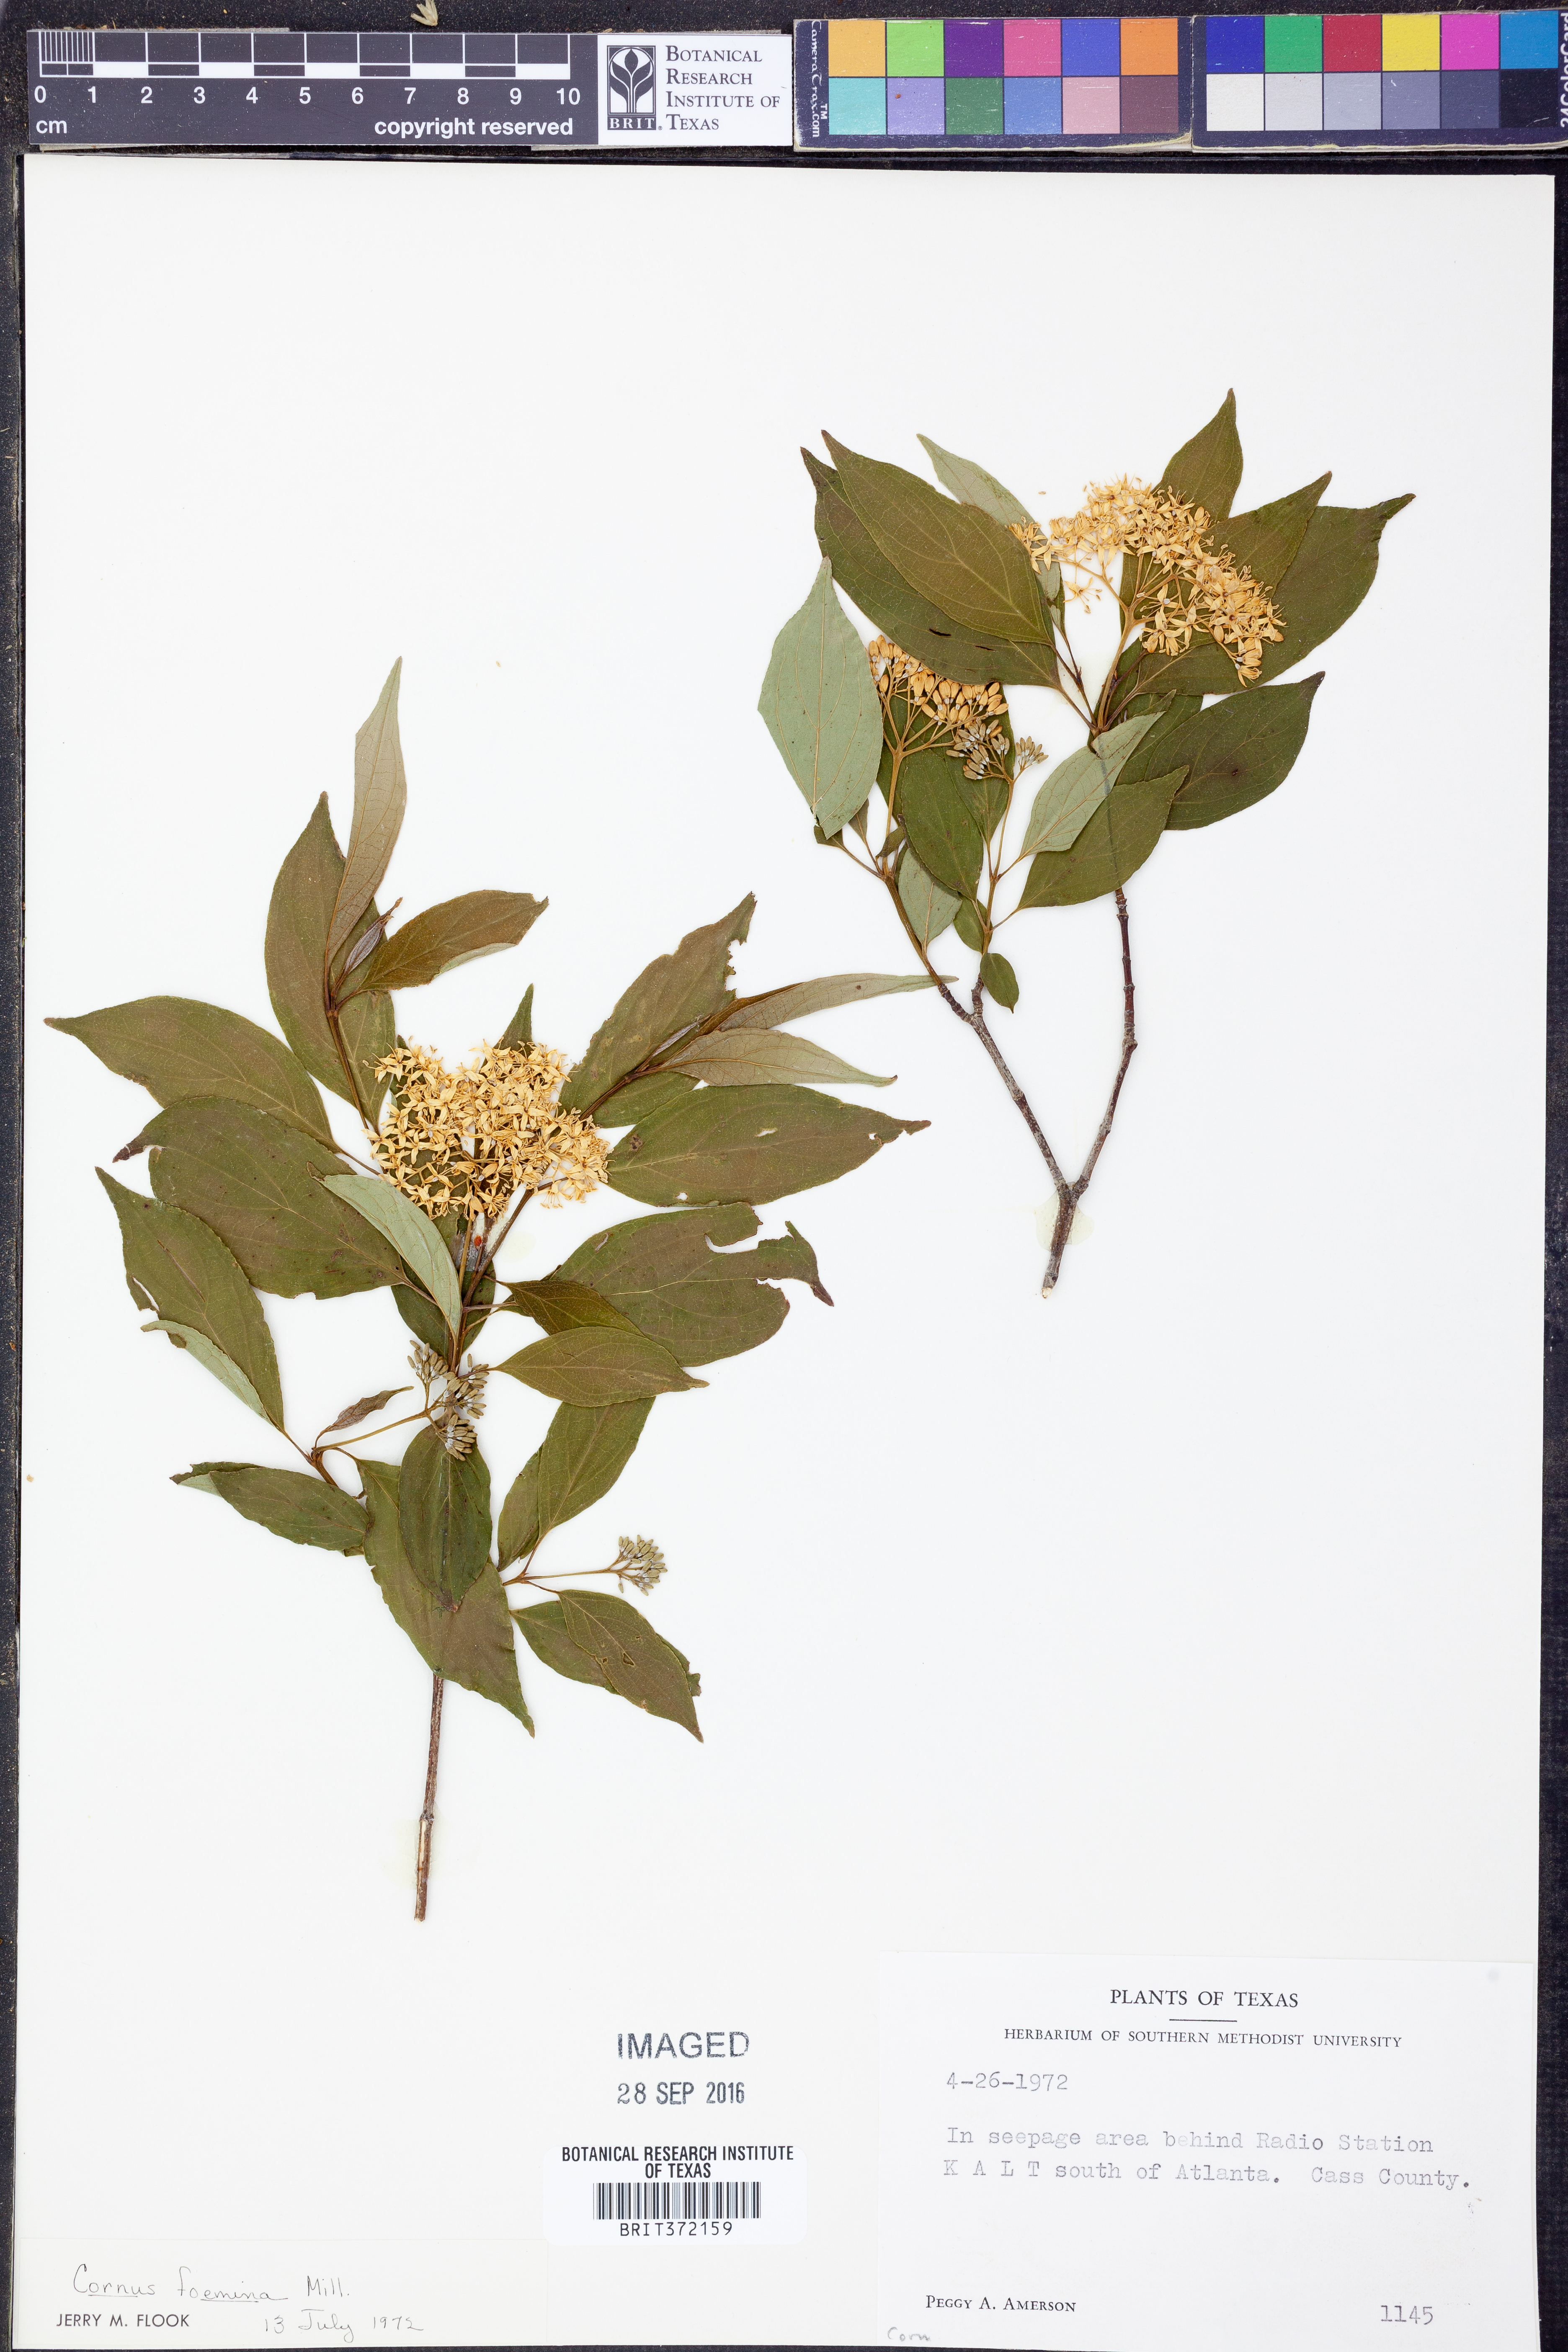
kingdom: Plantae
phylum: Tracheophyta
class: Magnoliopsida
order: Cornales
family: Cornaceae
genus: Cornus
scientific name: Cornus foemina
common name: Swamp dogwood
